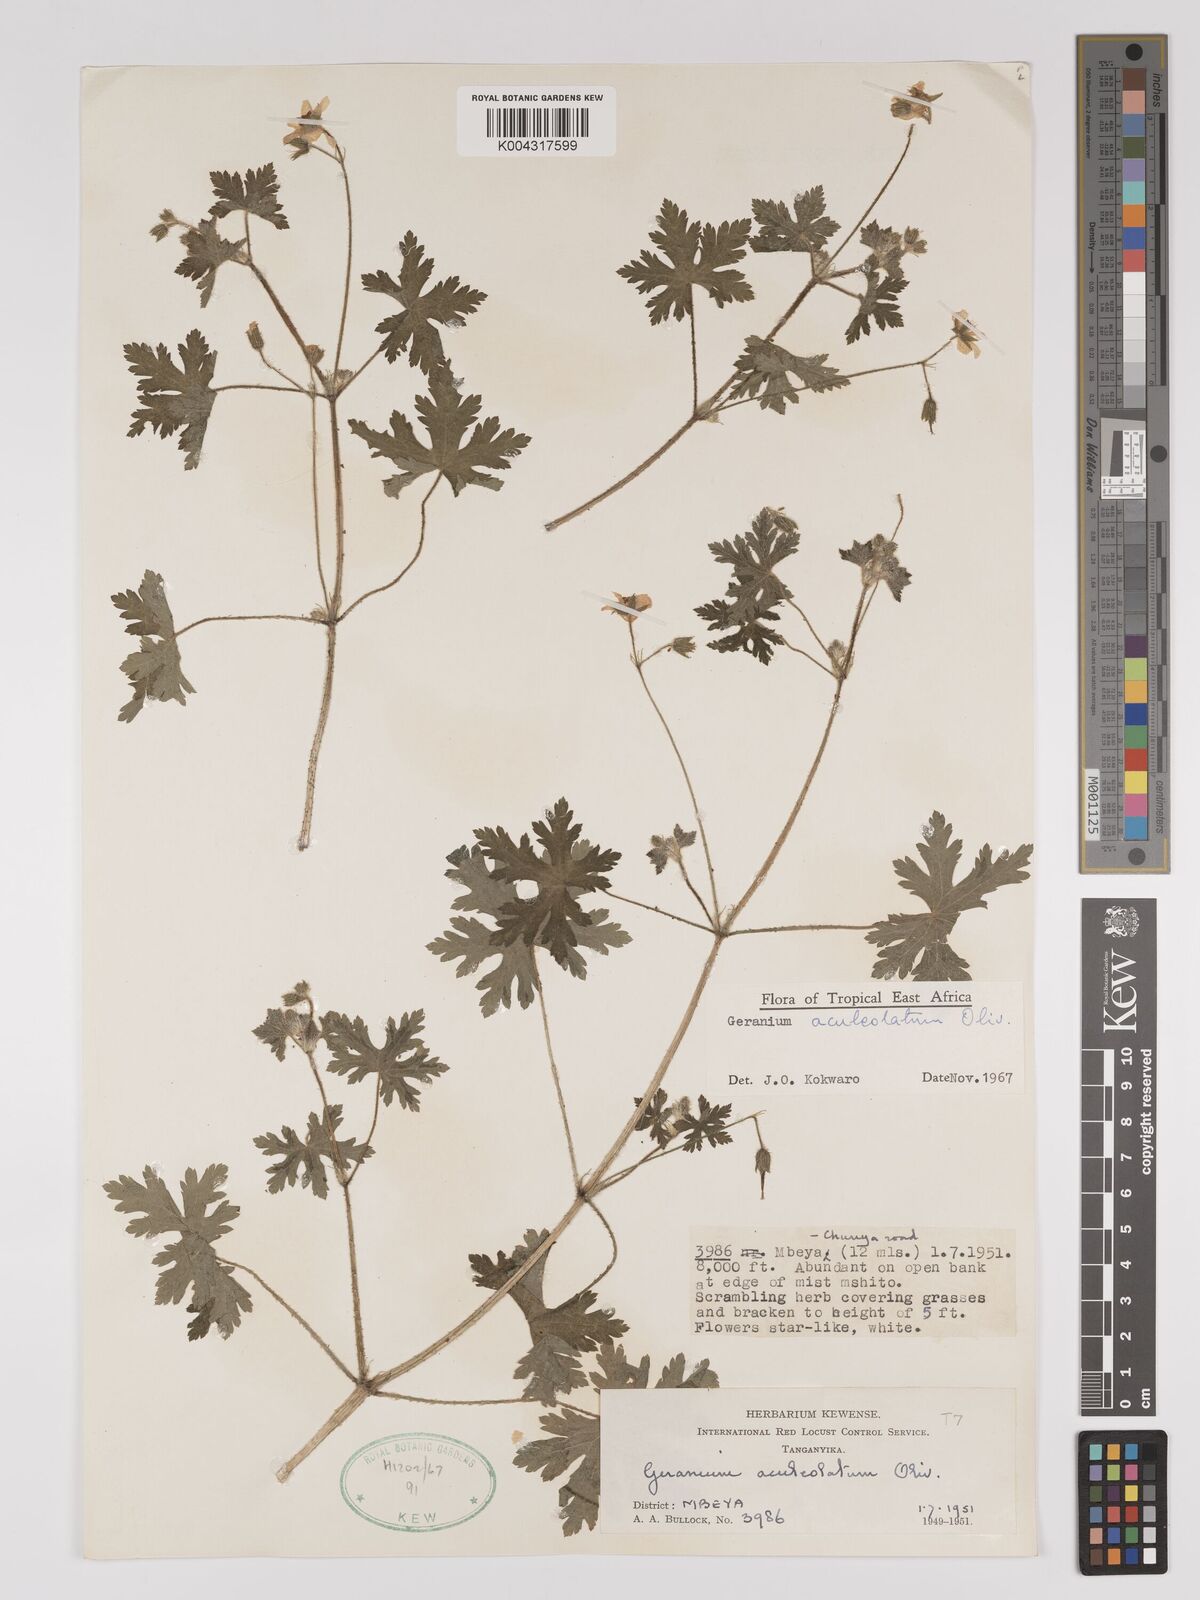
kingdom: Plantae
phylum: Tracheophyta
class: Magnoliopsida
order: Geraniales
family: Geraniaceae
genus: Geranium
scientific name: Geranium aculeolatum
